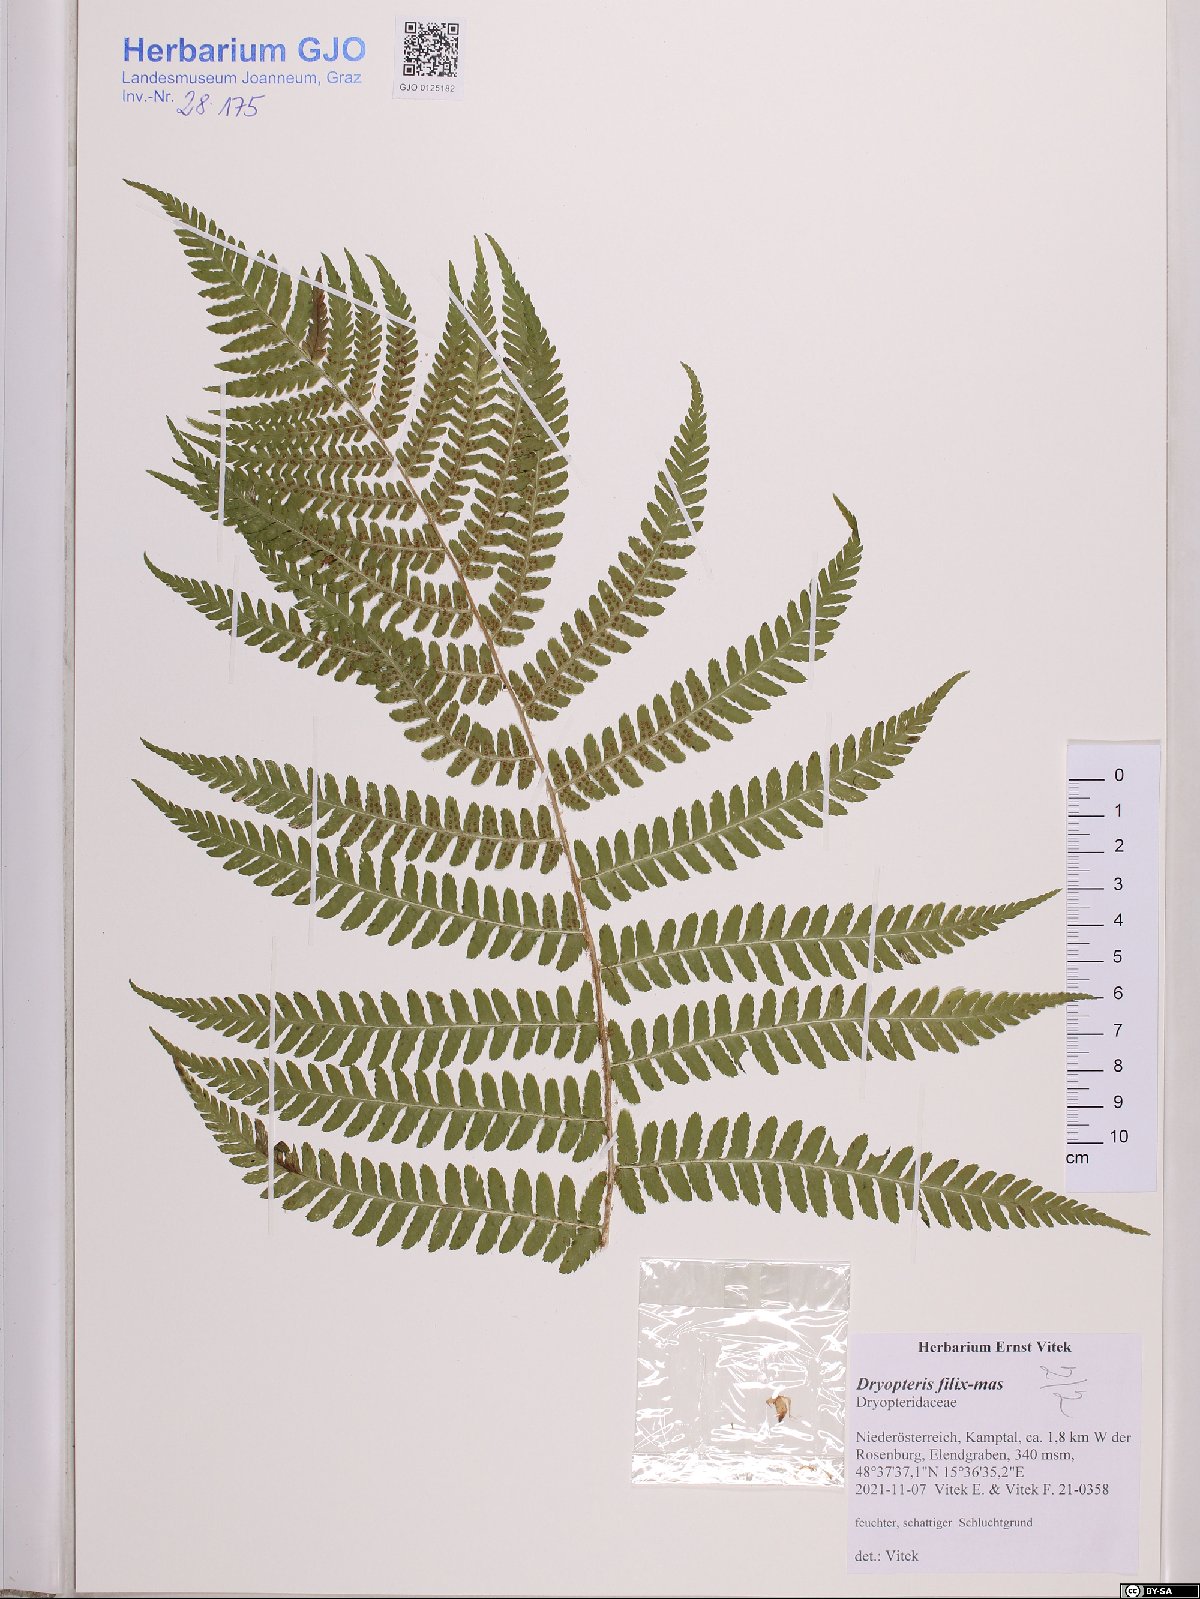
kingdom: Plantae
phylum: Tracheophyta
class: Polypodiopsida
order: Polypodiales
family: Dryopteridaceae
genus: Dryopteris
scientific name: Dryopteris filix-mas
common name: Male fern
